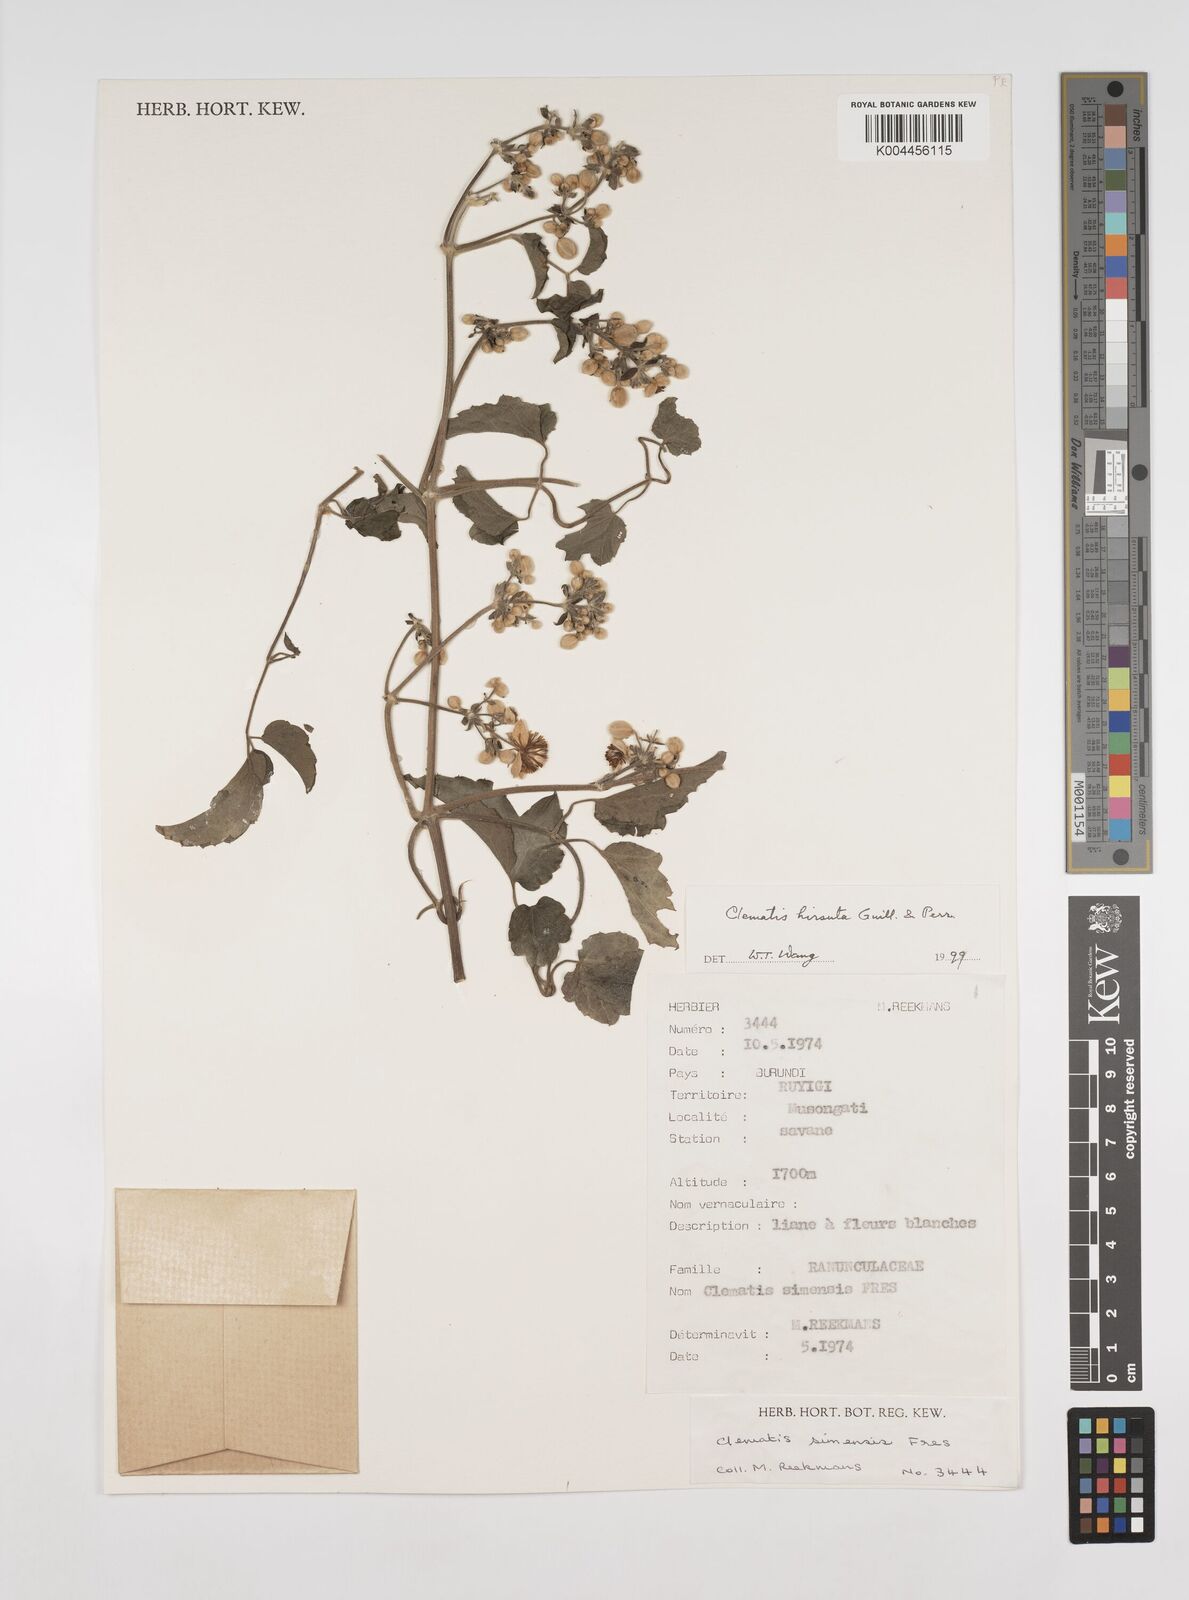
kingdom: Plantae
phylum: Tracheophyta
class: Magnoliopsida
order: Ranunculales
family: Ranunculaceae
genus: Clematis
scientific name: Clematis simensis
